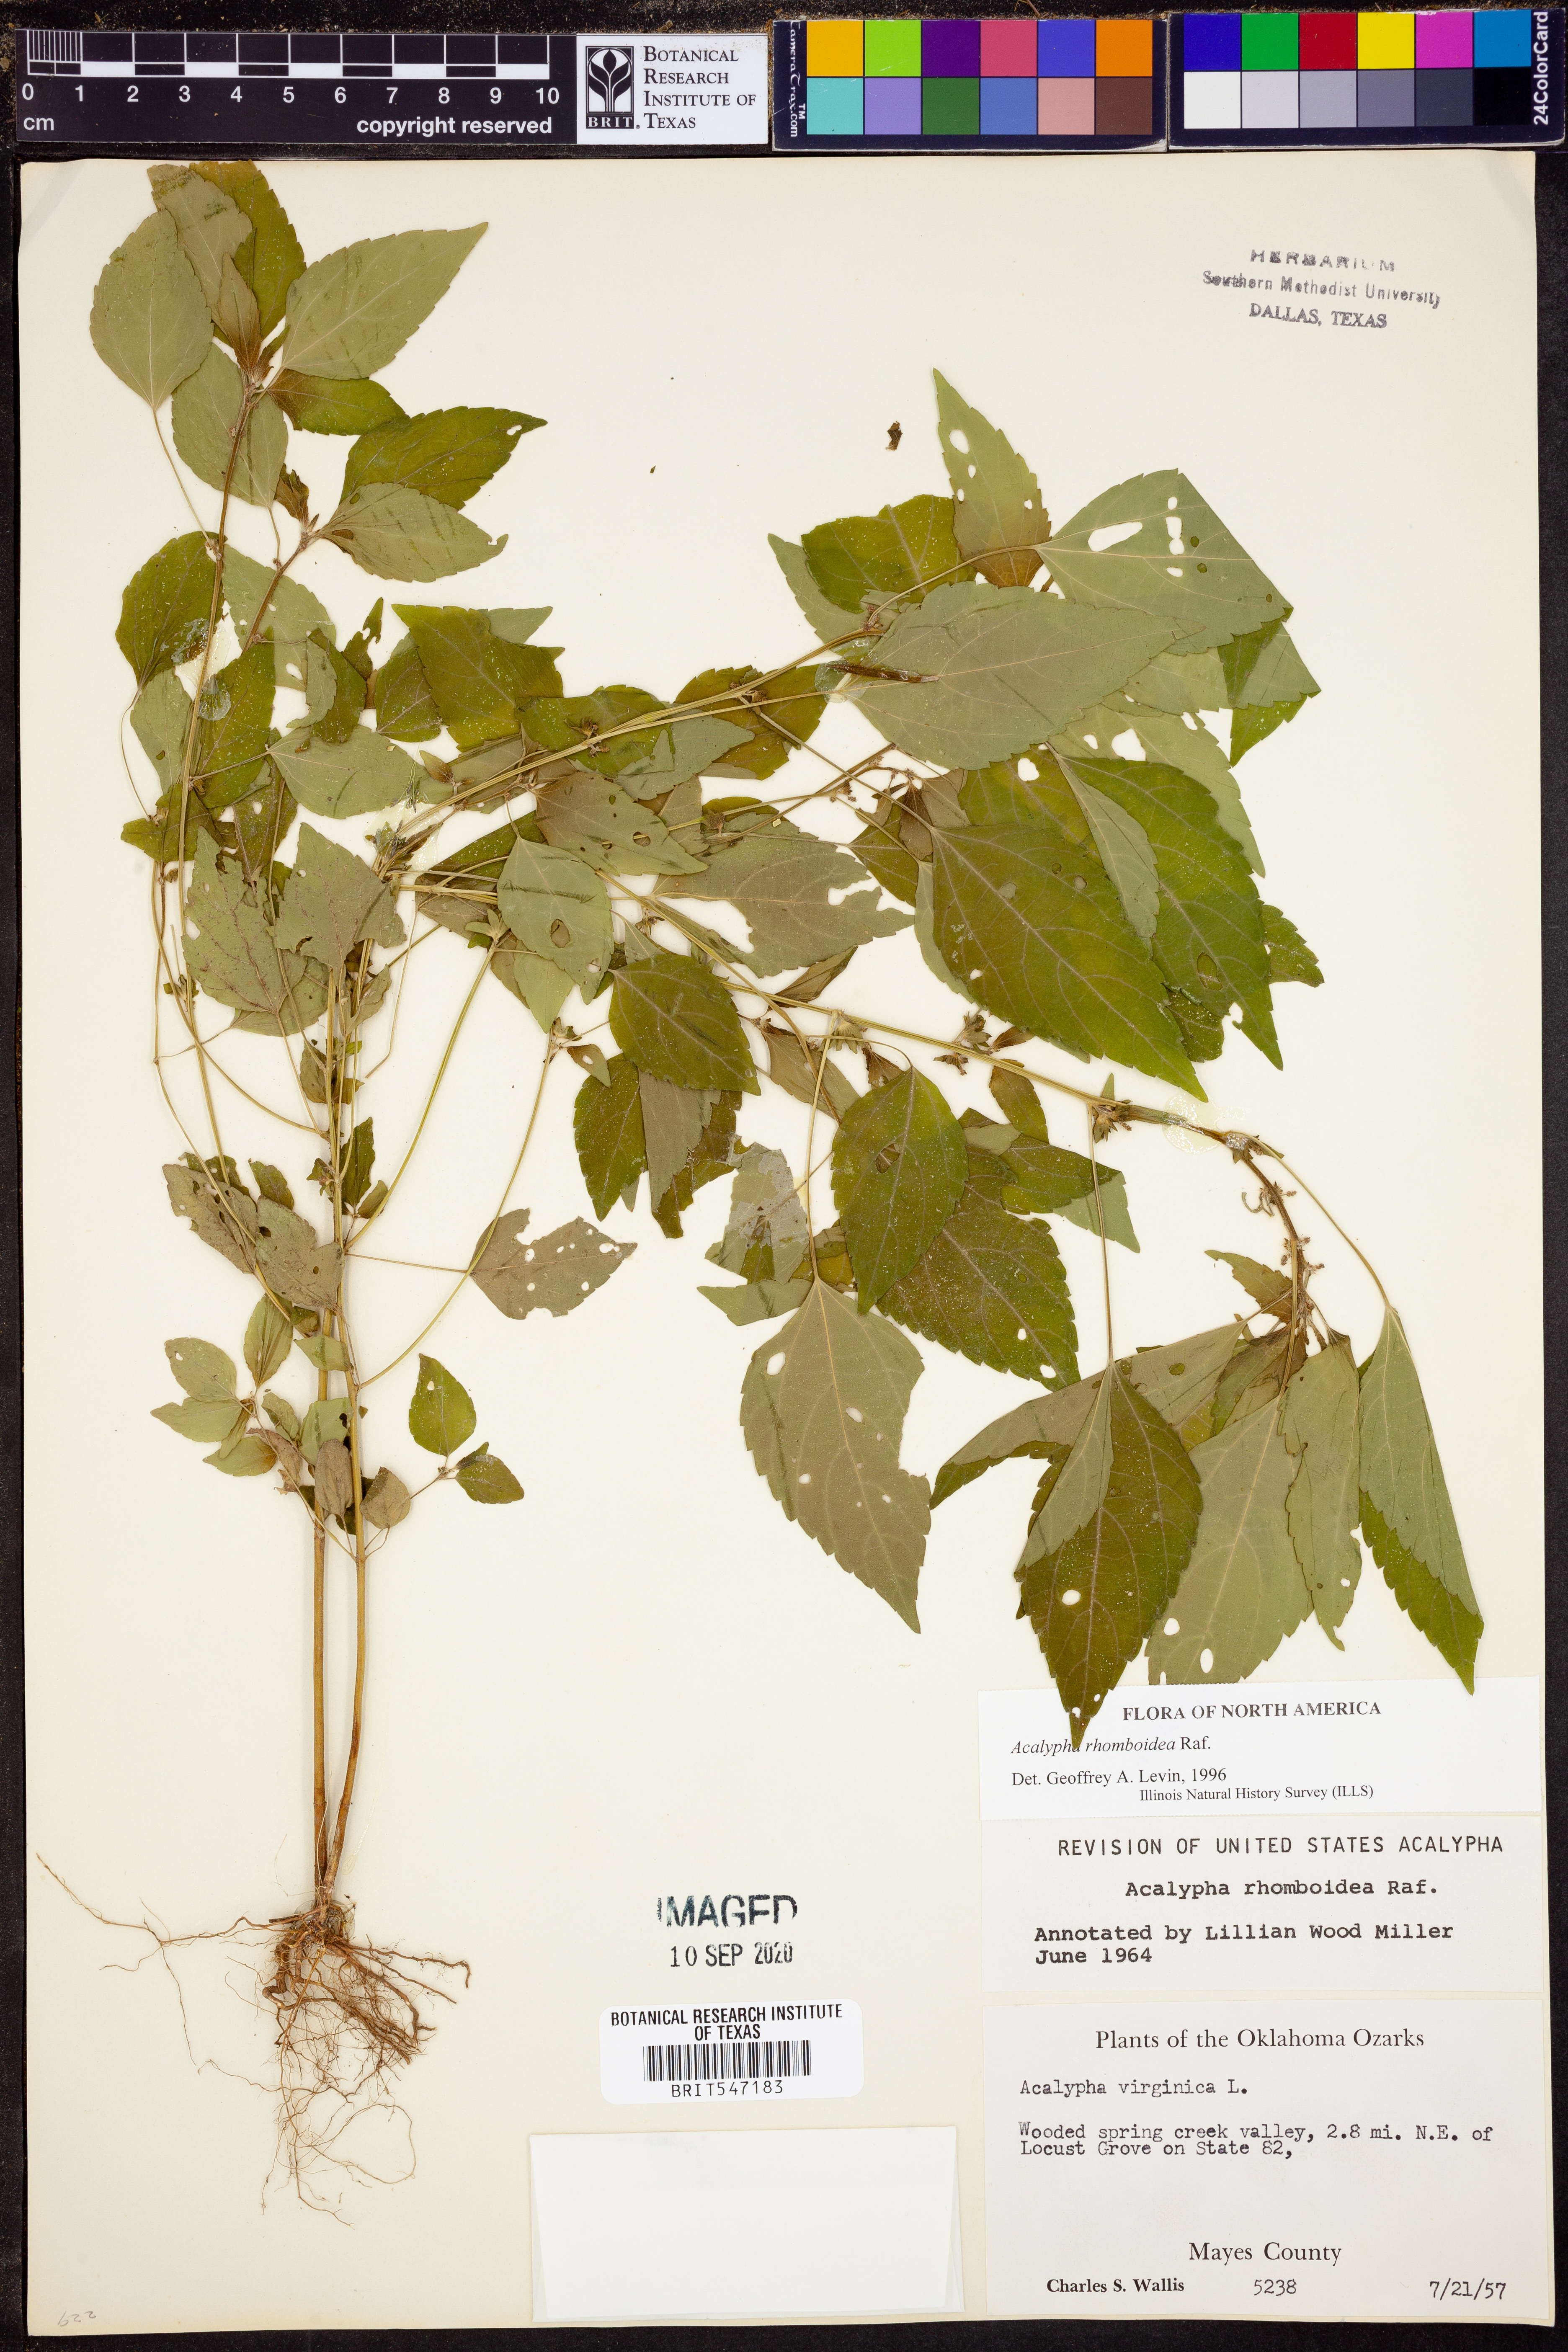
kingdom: Plantae
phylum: Tracheophyta
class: Magnoliopsida
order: Malpighiales
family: Euphorbiaceae
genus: Acalypha
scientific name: Acalypha rhomboidea
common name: Rhombic copperleaf
